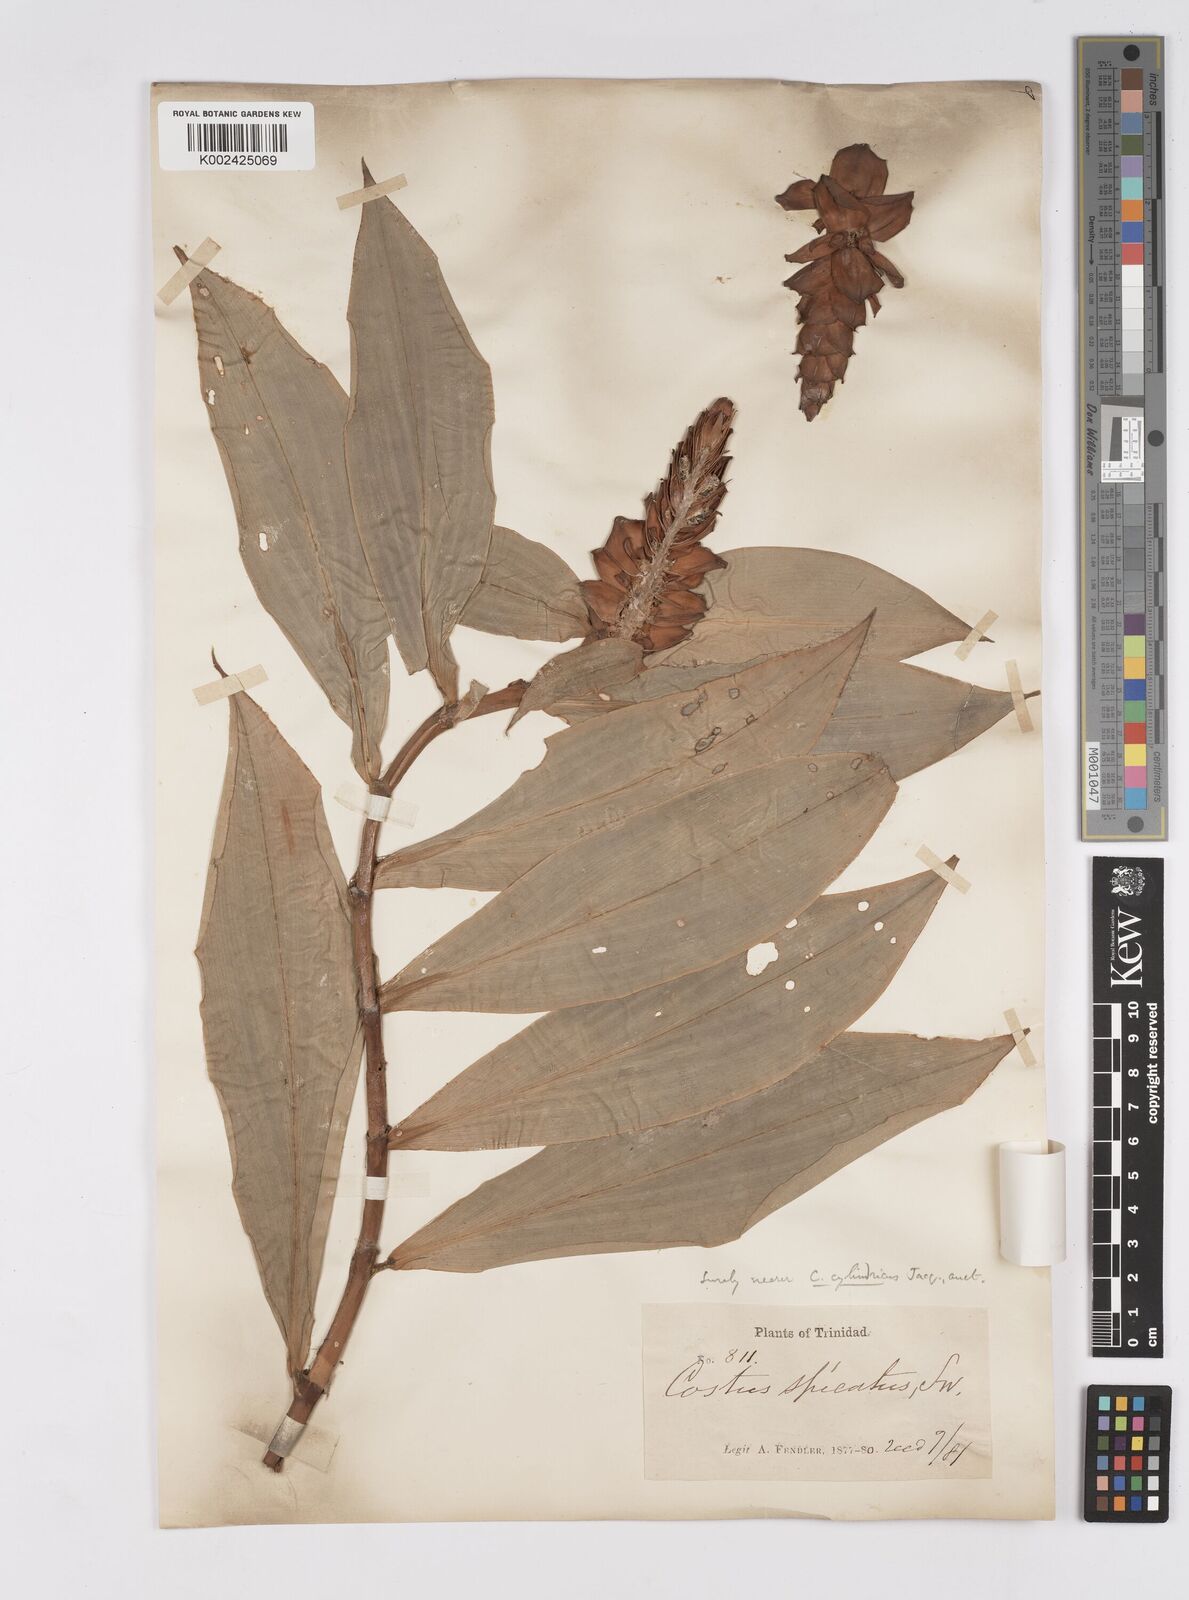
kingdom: Plantae
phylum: Tracheophyta
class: Liliopsida
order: Zingiberales
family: Costaceae
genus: Costus
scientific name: Costus scaber
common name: Spiral head ginger
